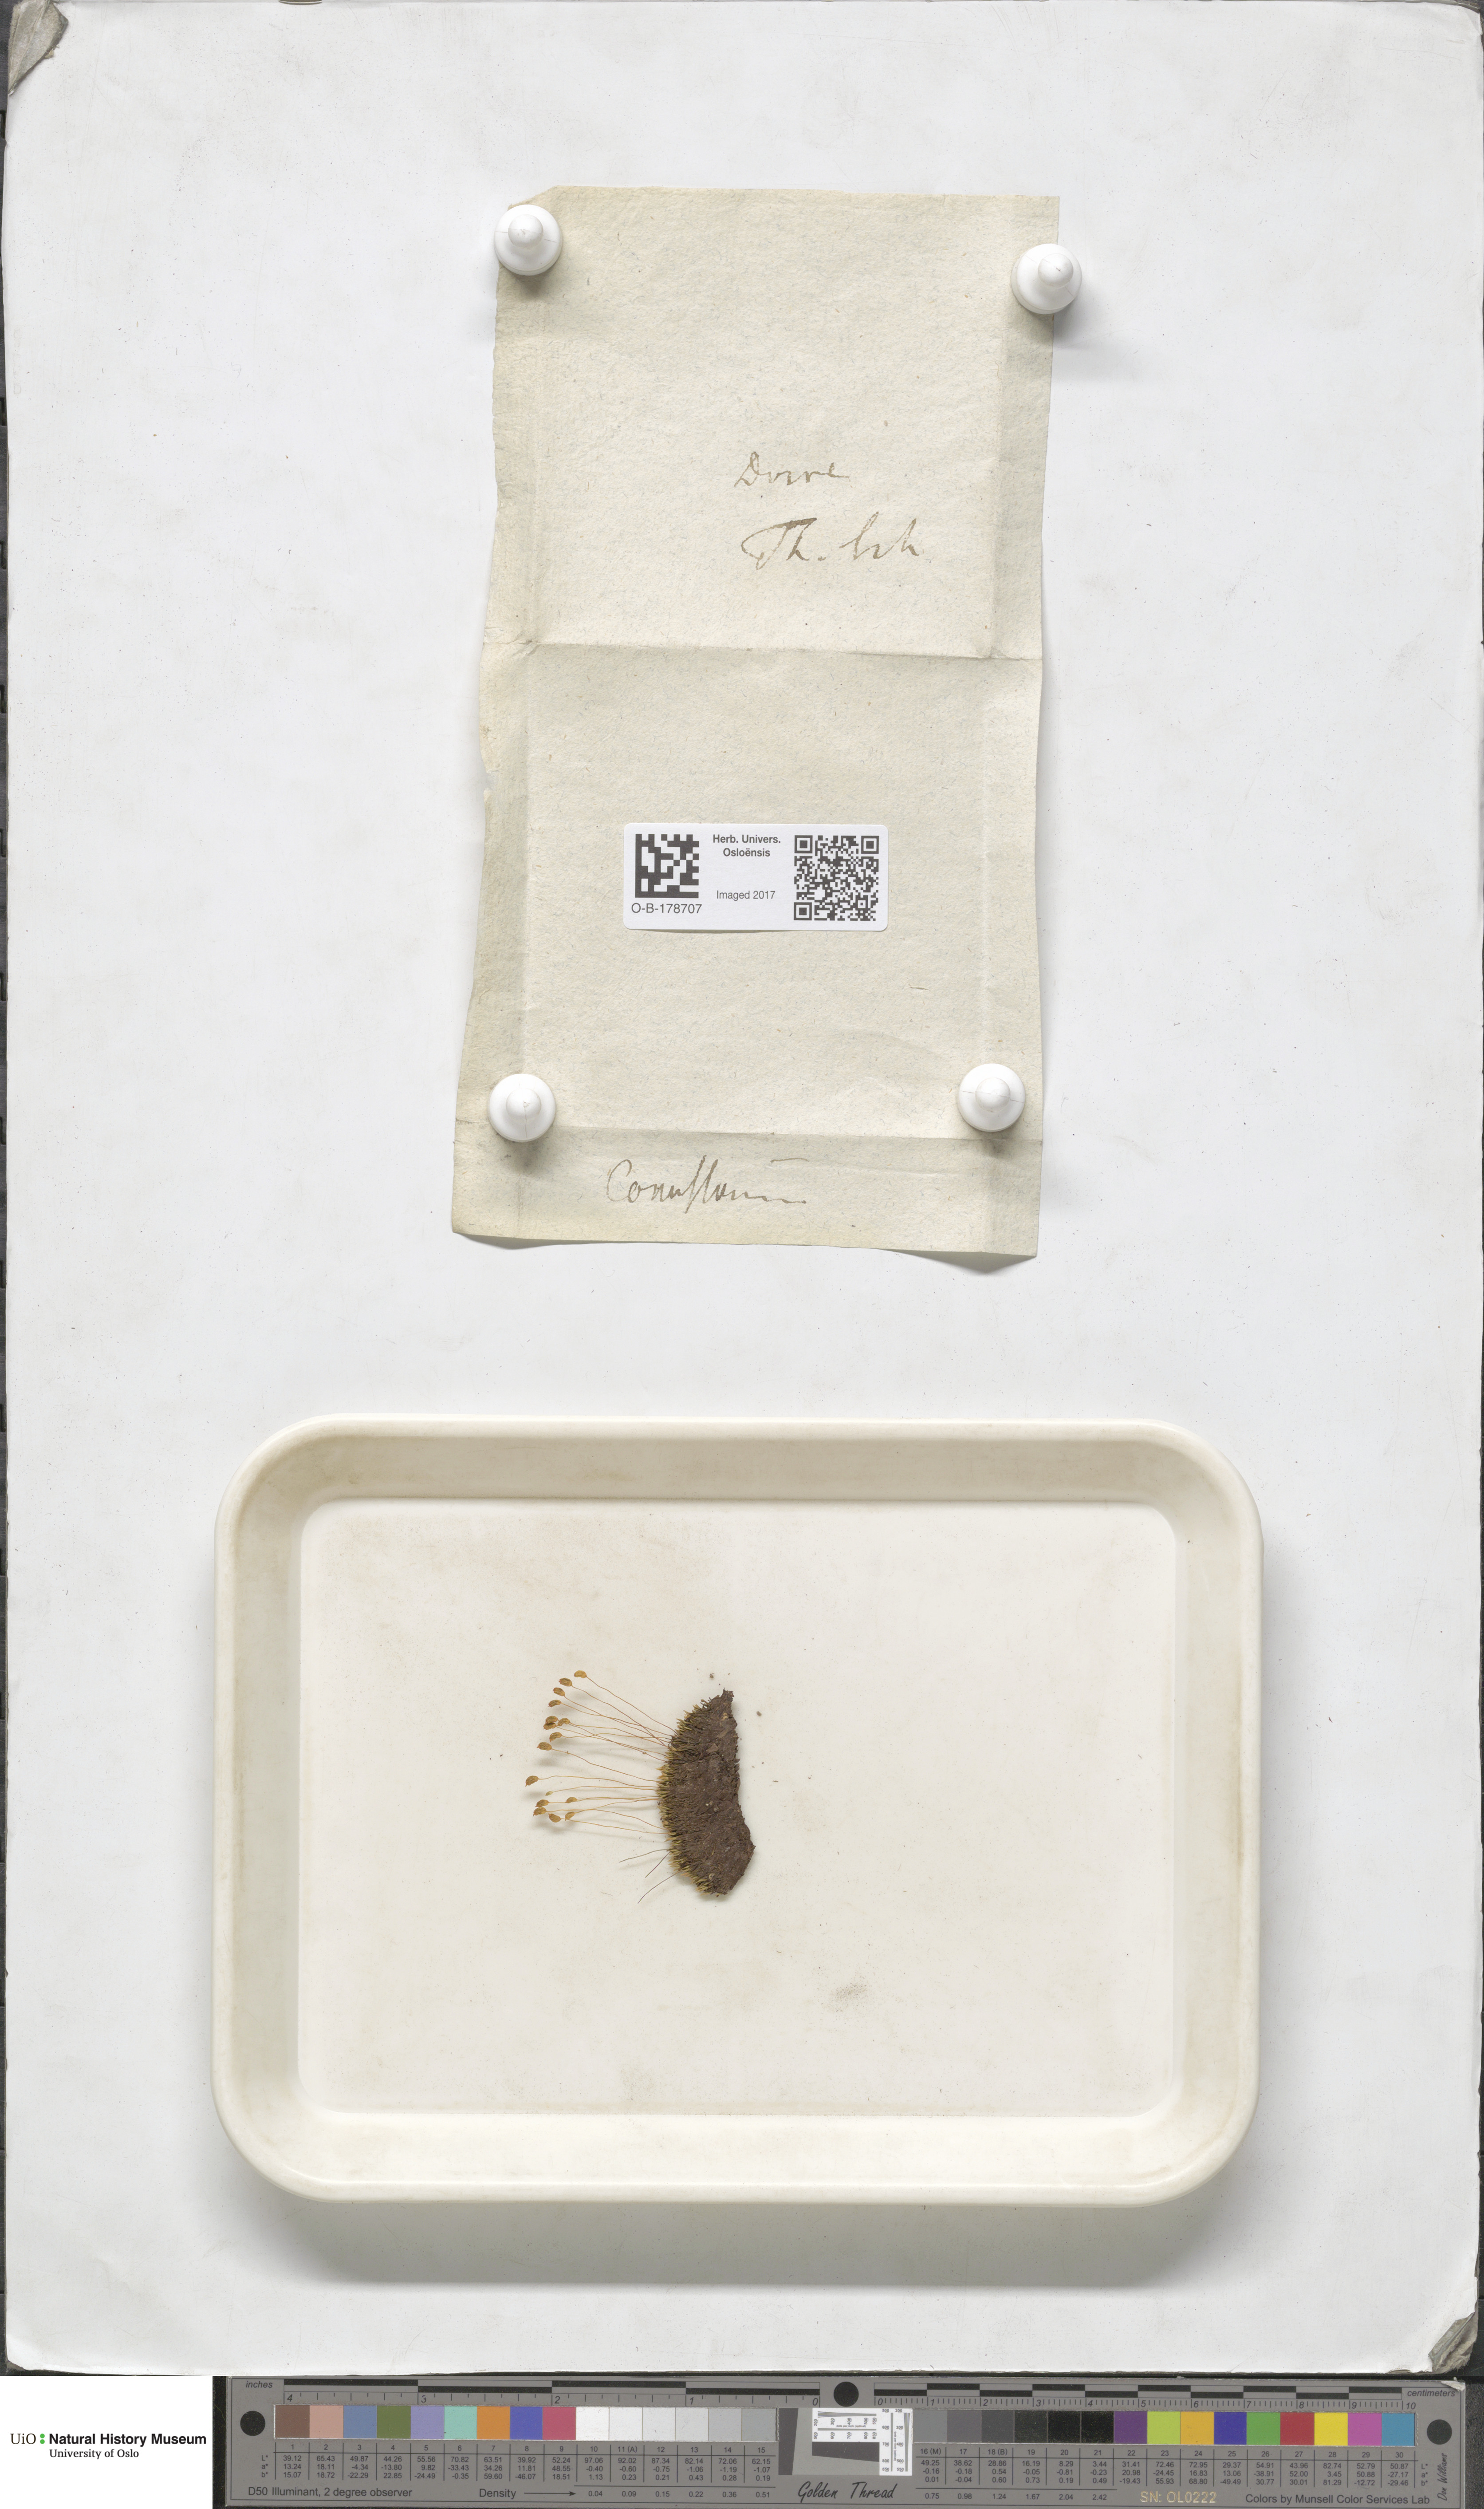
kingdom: Plantae
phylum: Bryophyta
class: Bryopsida
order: Bartramiales
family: Bartramiaceae
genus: Conostomum
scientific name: Conostomum tetragonum
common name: Helmet moss
